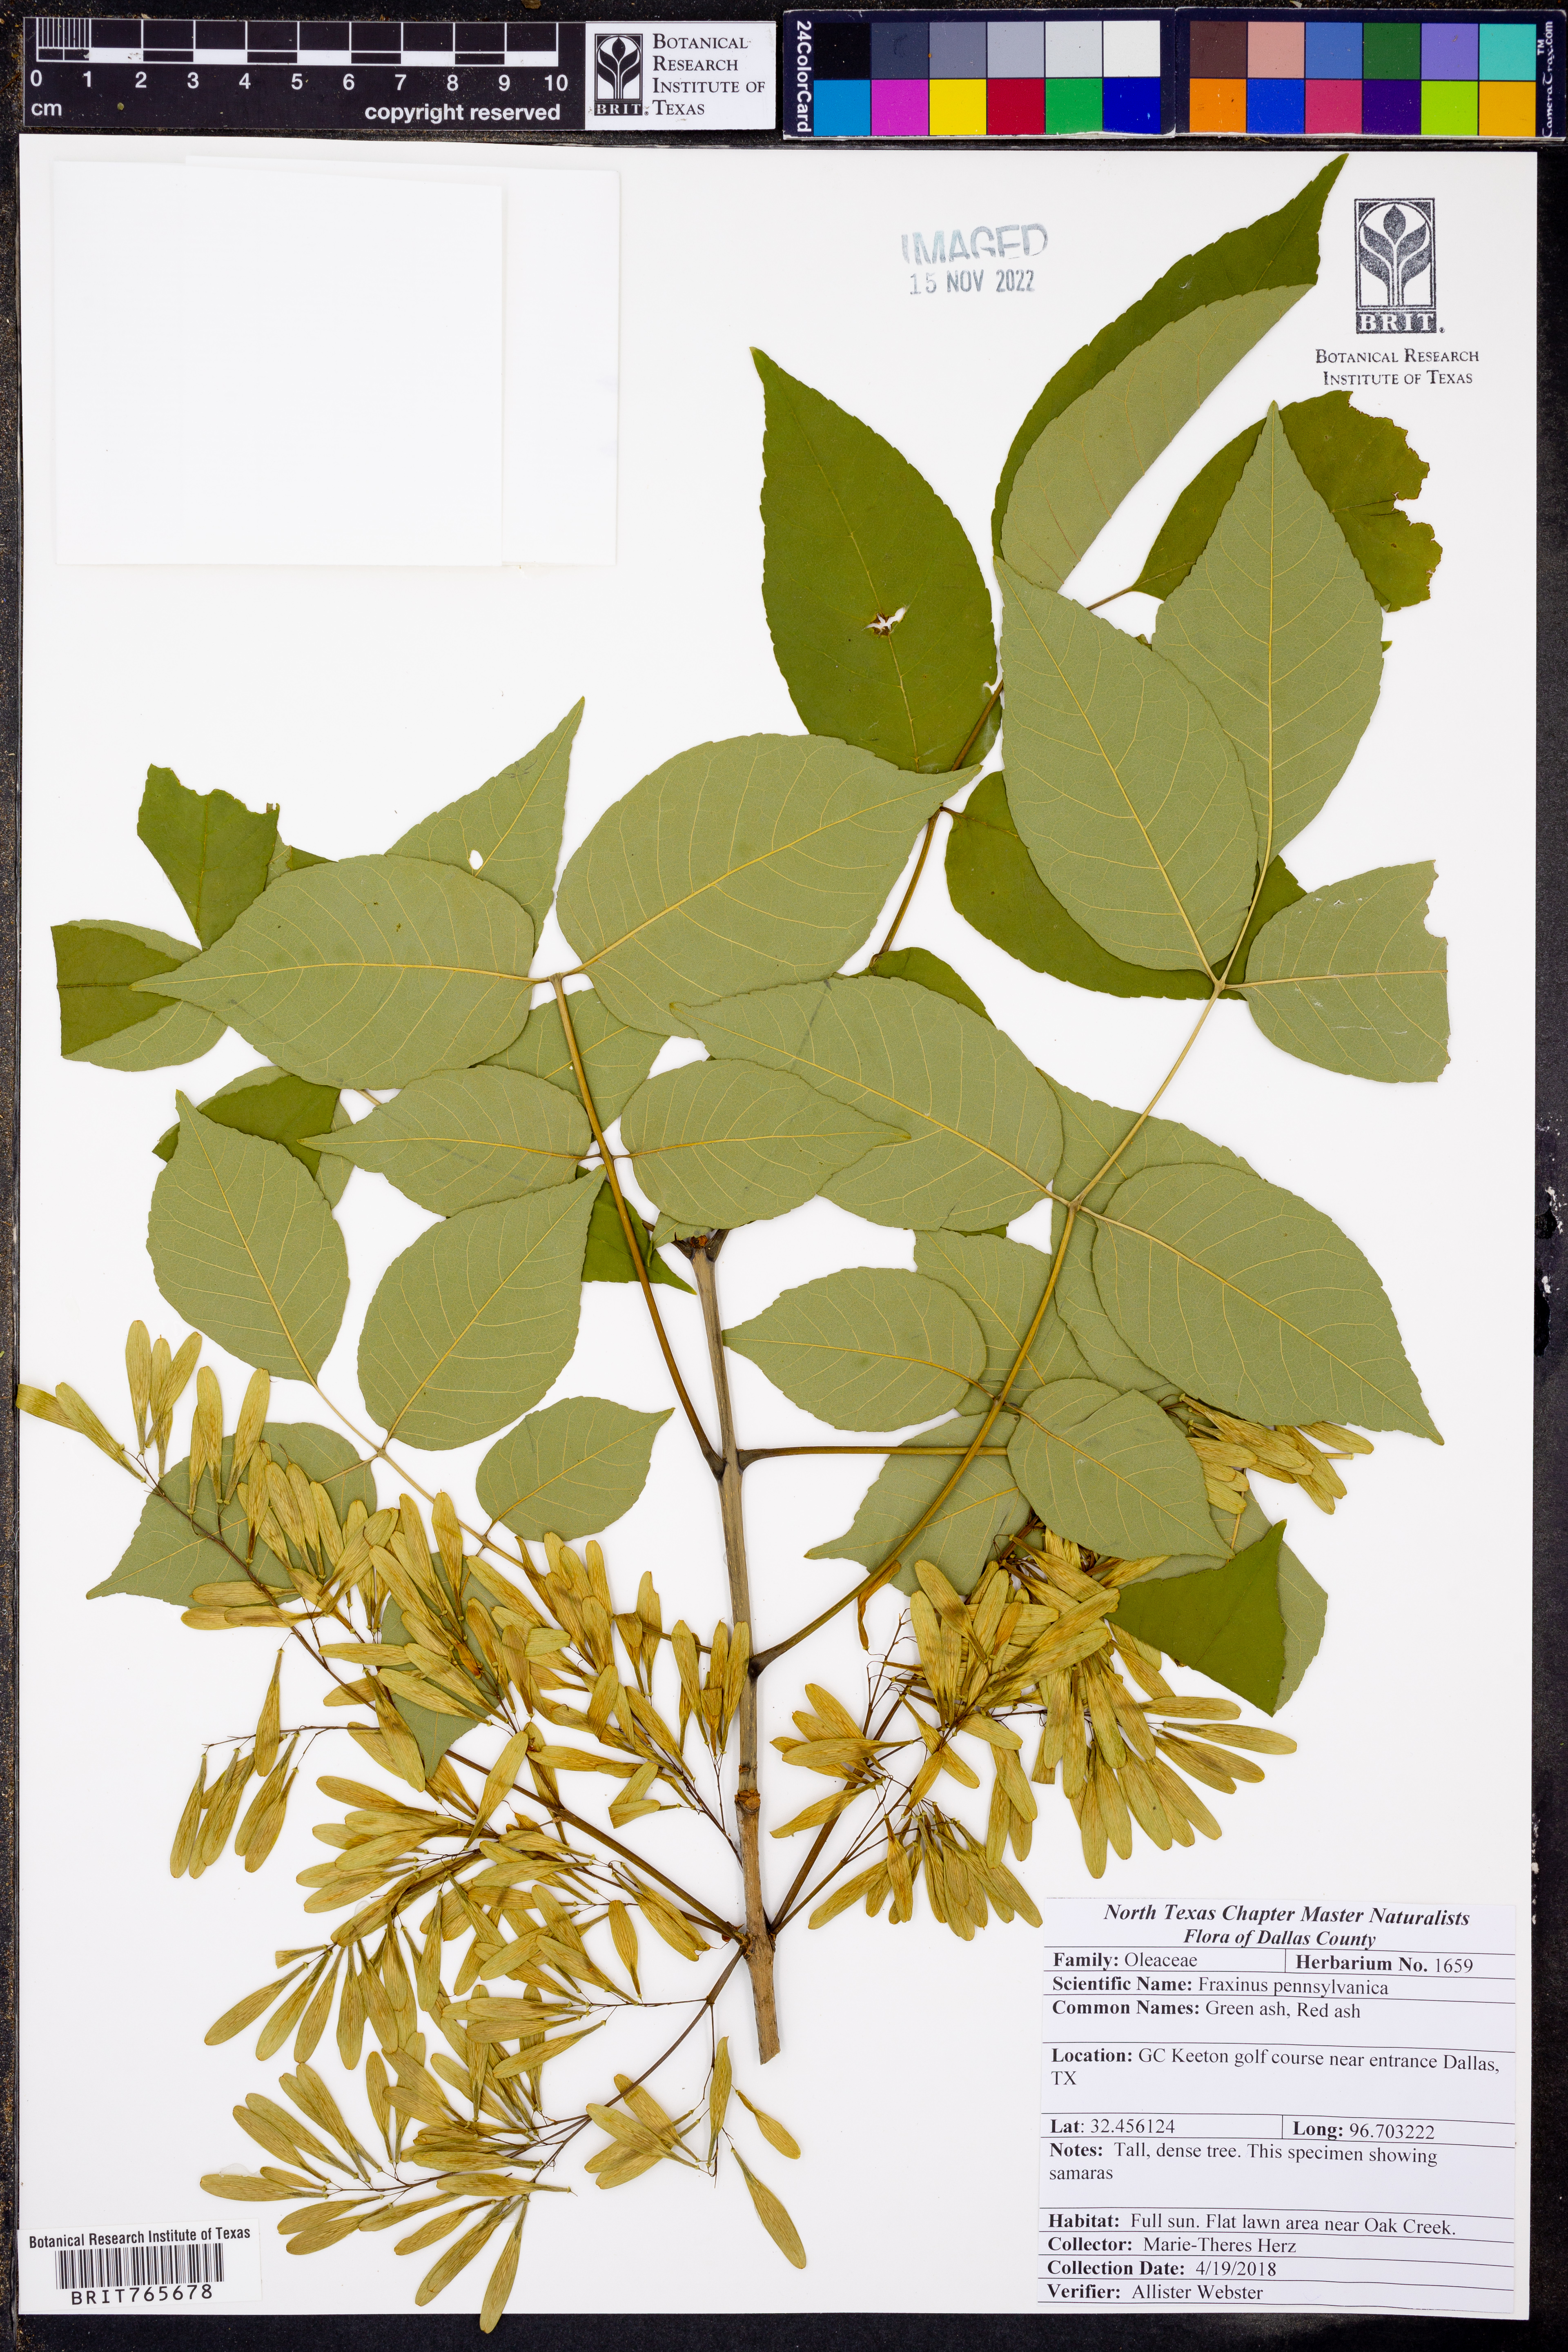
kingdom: Plantae
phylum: Tracheophyta
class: Magnoliopsida
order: Lamiales
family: Oleaceae
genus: Fraxinus
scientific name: Fraxinus pennsylvanica
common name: Green ash
